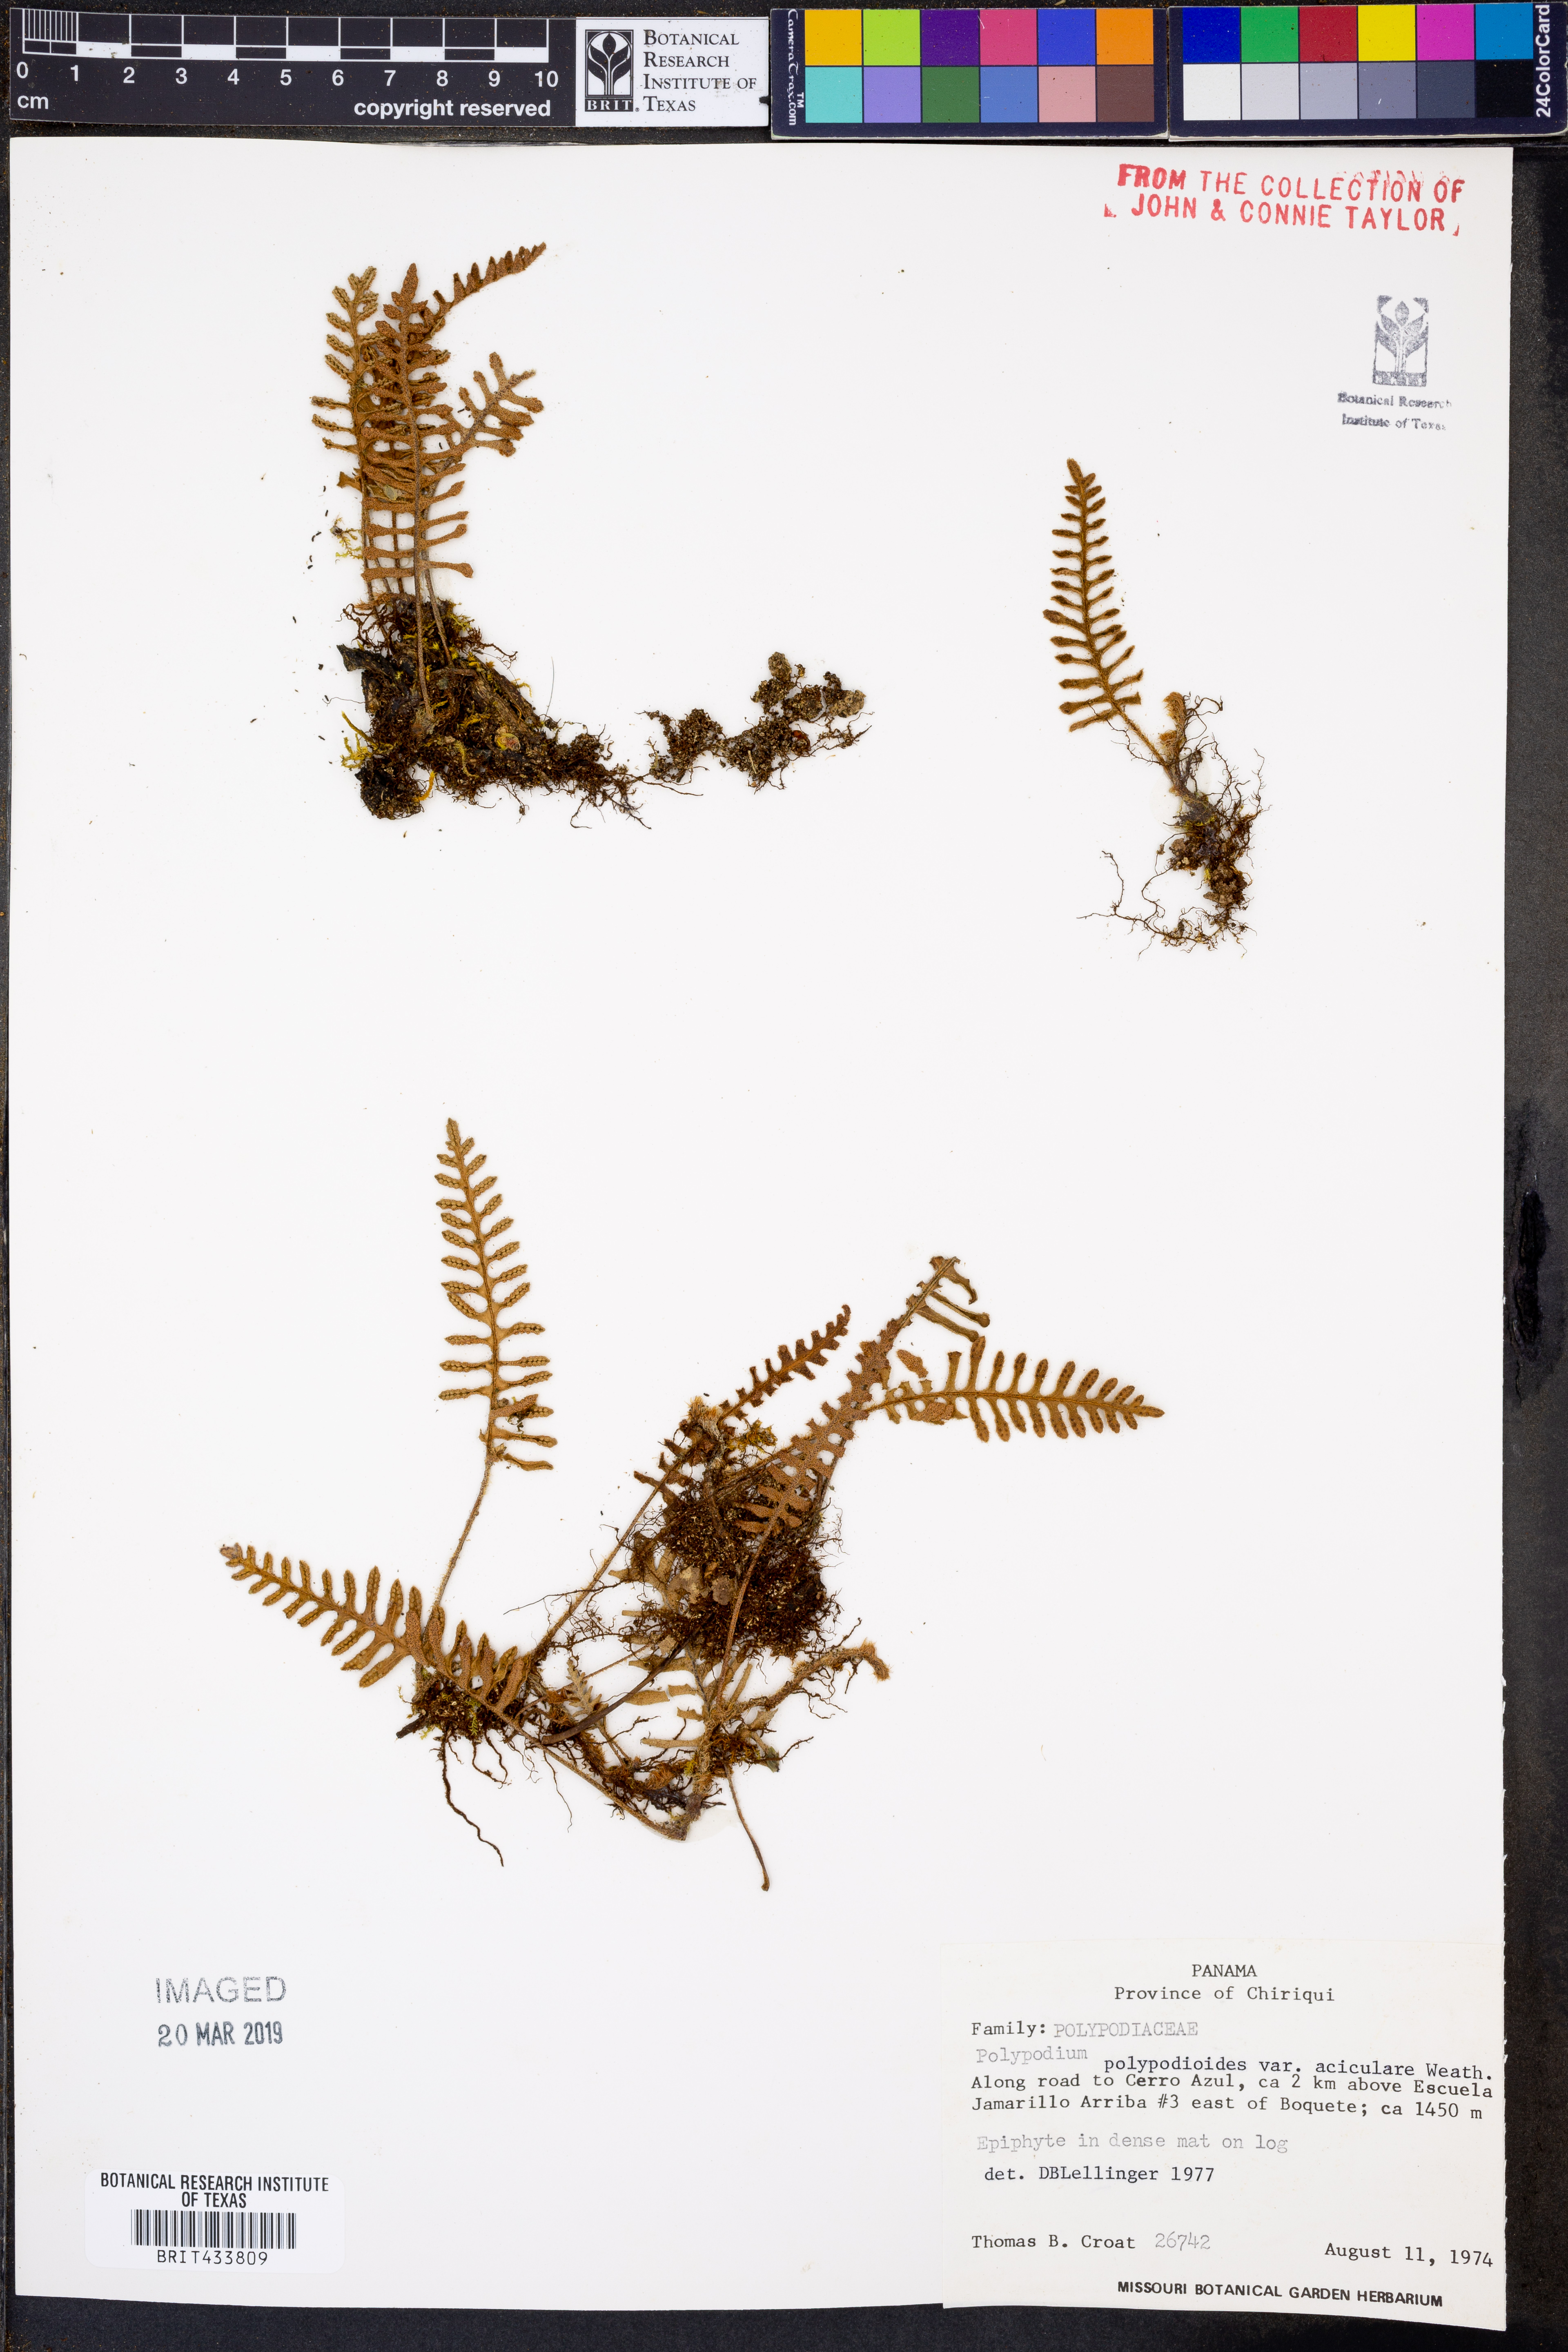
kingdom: Plantae
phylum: Tracheophyta
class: Polypodiopsida
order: Polypodiales
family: Polypodiaceae
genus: Pleopeltis
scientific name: Pleopeltis acicularis
